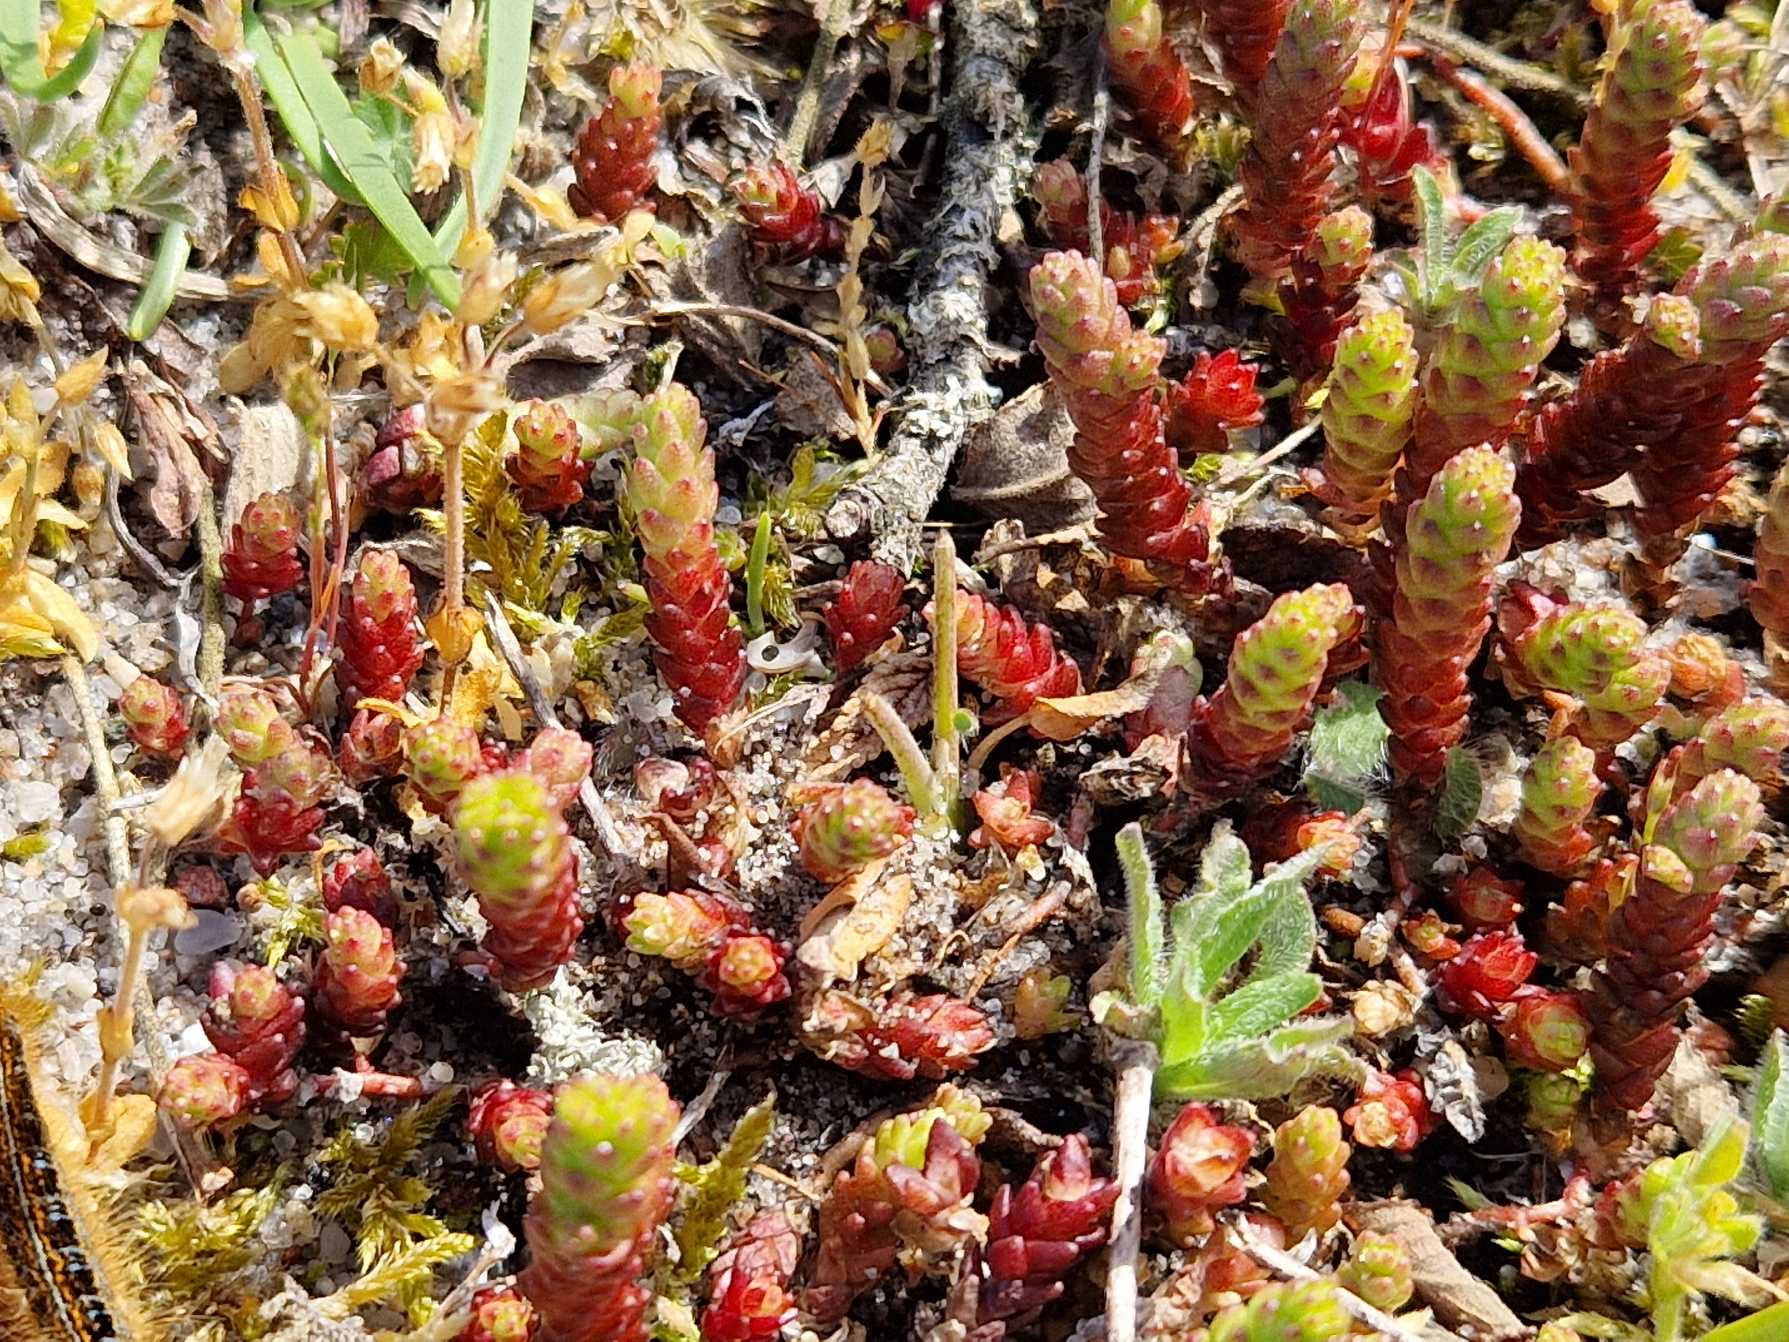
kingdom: Plantae
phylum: Tracheophyta
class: Magnoliopsida
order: Saxifragales
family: Crassulaceae
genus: Sedum
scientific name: Sedum acre
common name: Bidende stenurt
